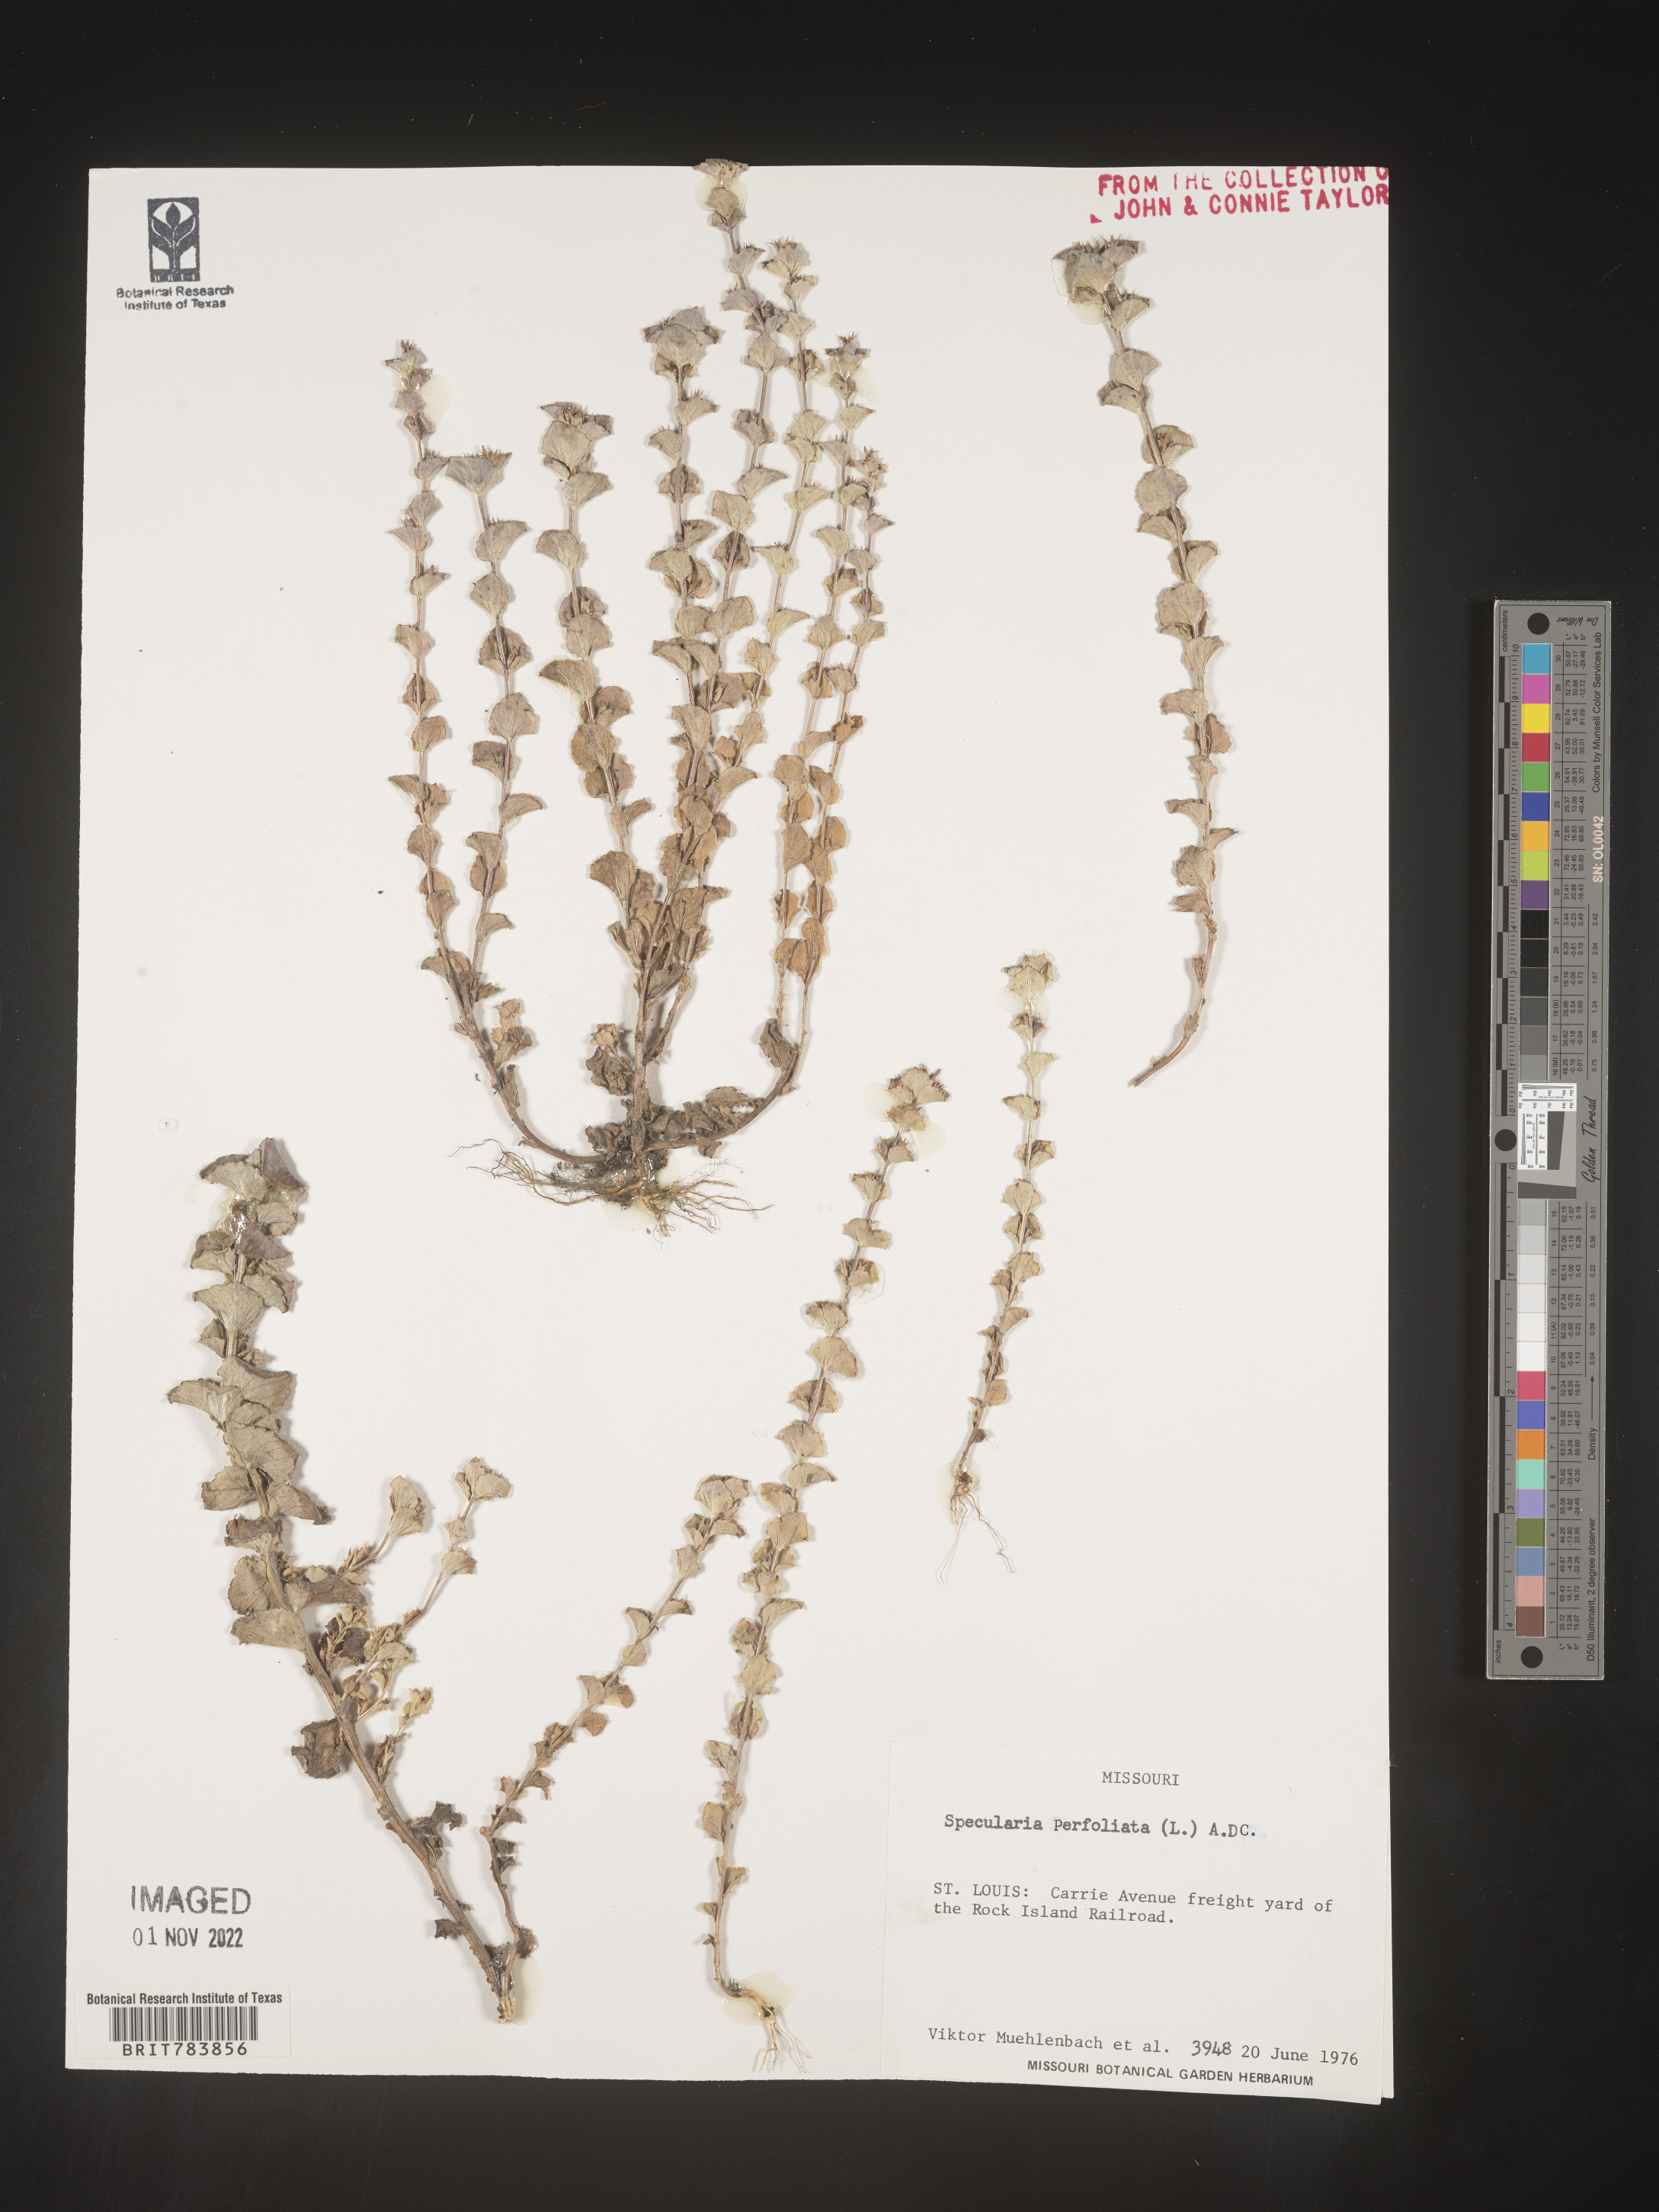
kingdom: Plantae
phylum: Tracheophyta
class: Magnoliopsida
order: Asterales
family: Campanulaceae
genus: Triodanis
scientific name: Triodanis perfoliata
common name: Clasping venus' looking-glass
